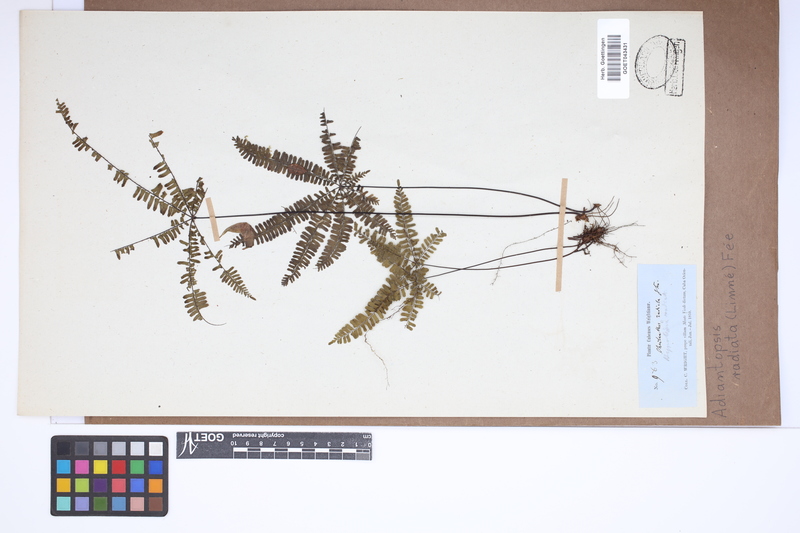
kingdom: Plantae
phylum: Tracheophyta
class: Polypodiopsida
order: Polypodiales
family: Pteridaceae
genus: Adiantopsis
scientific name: Adiantopsis radiata
